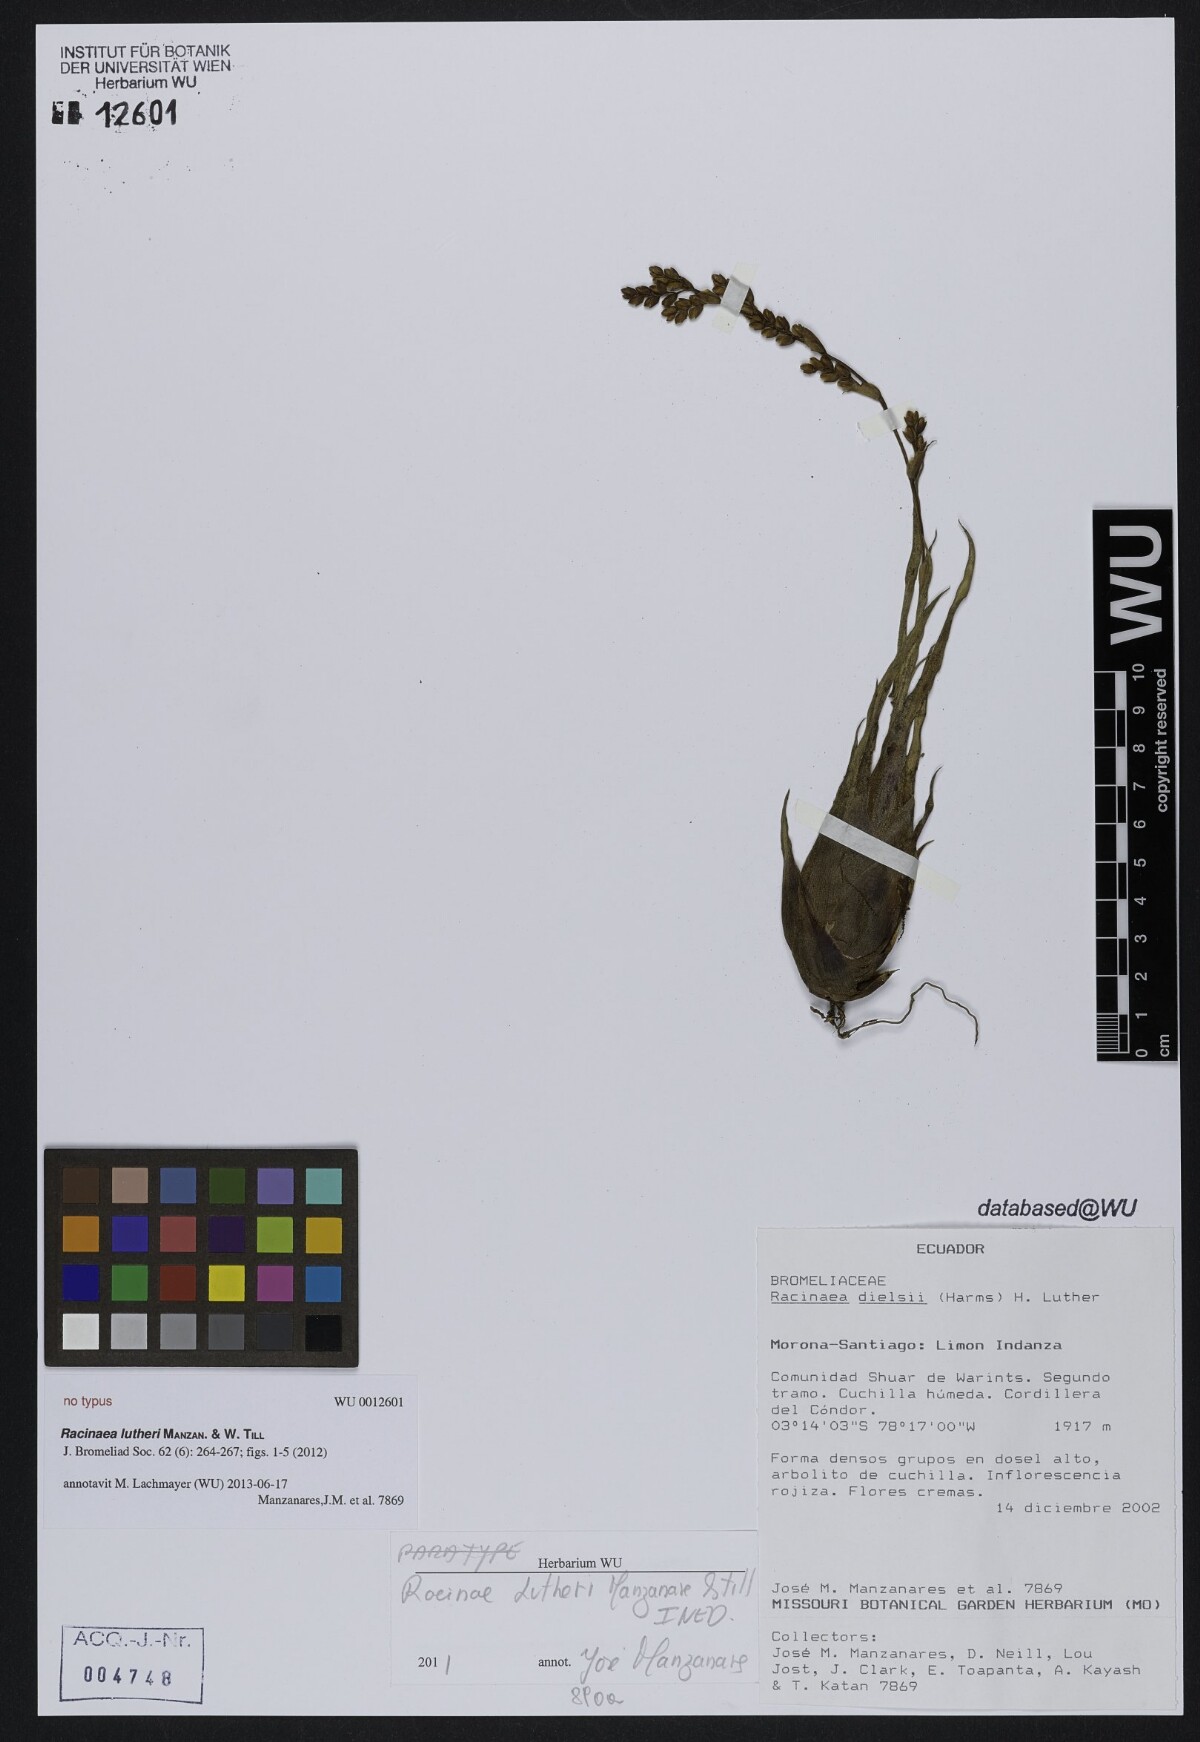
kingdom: Plantae
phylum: Tracheophyta
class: Liliopsida
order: Poales
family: Bromeliaceae
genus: Racinaea
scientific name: Racinaea lutheri
